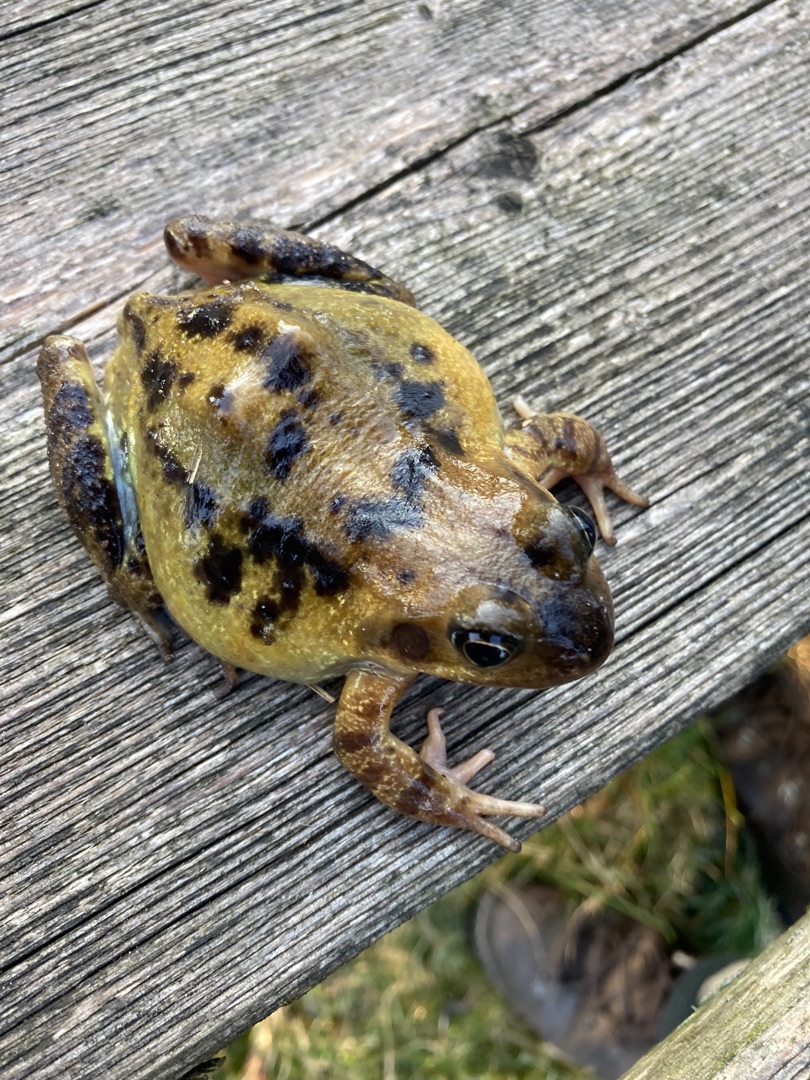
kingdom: Animalia
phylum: Chordata
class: Amphibia
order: Anura
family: Ranidae
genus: Rana
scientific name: Rana temporaria
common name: Butsnudet frø
